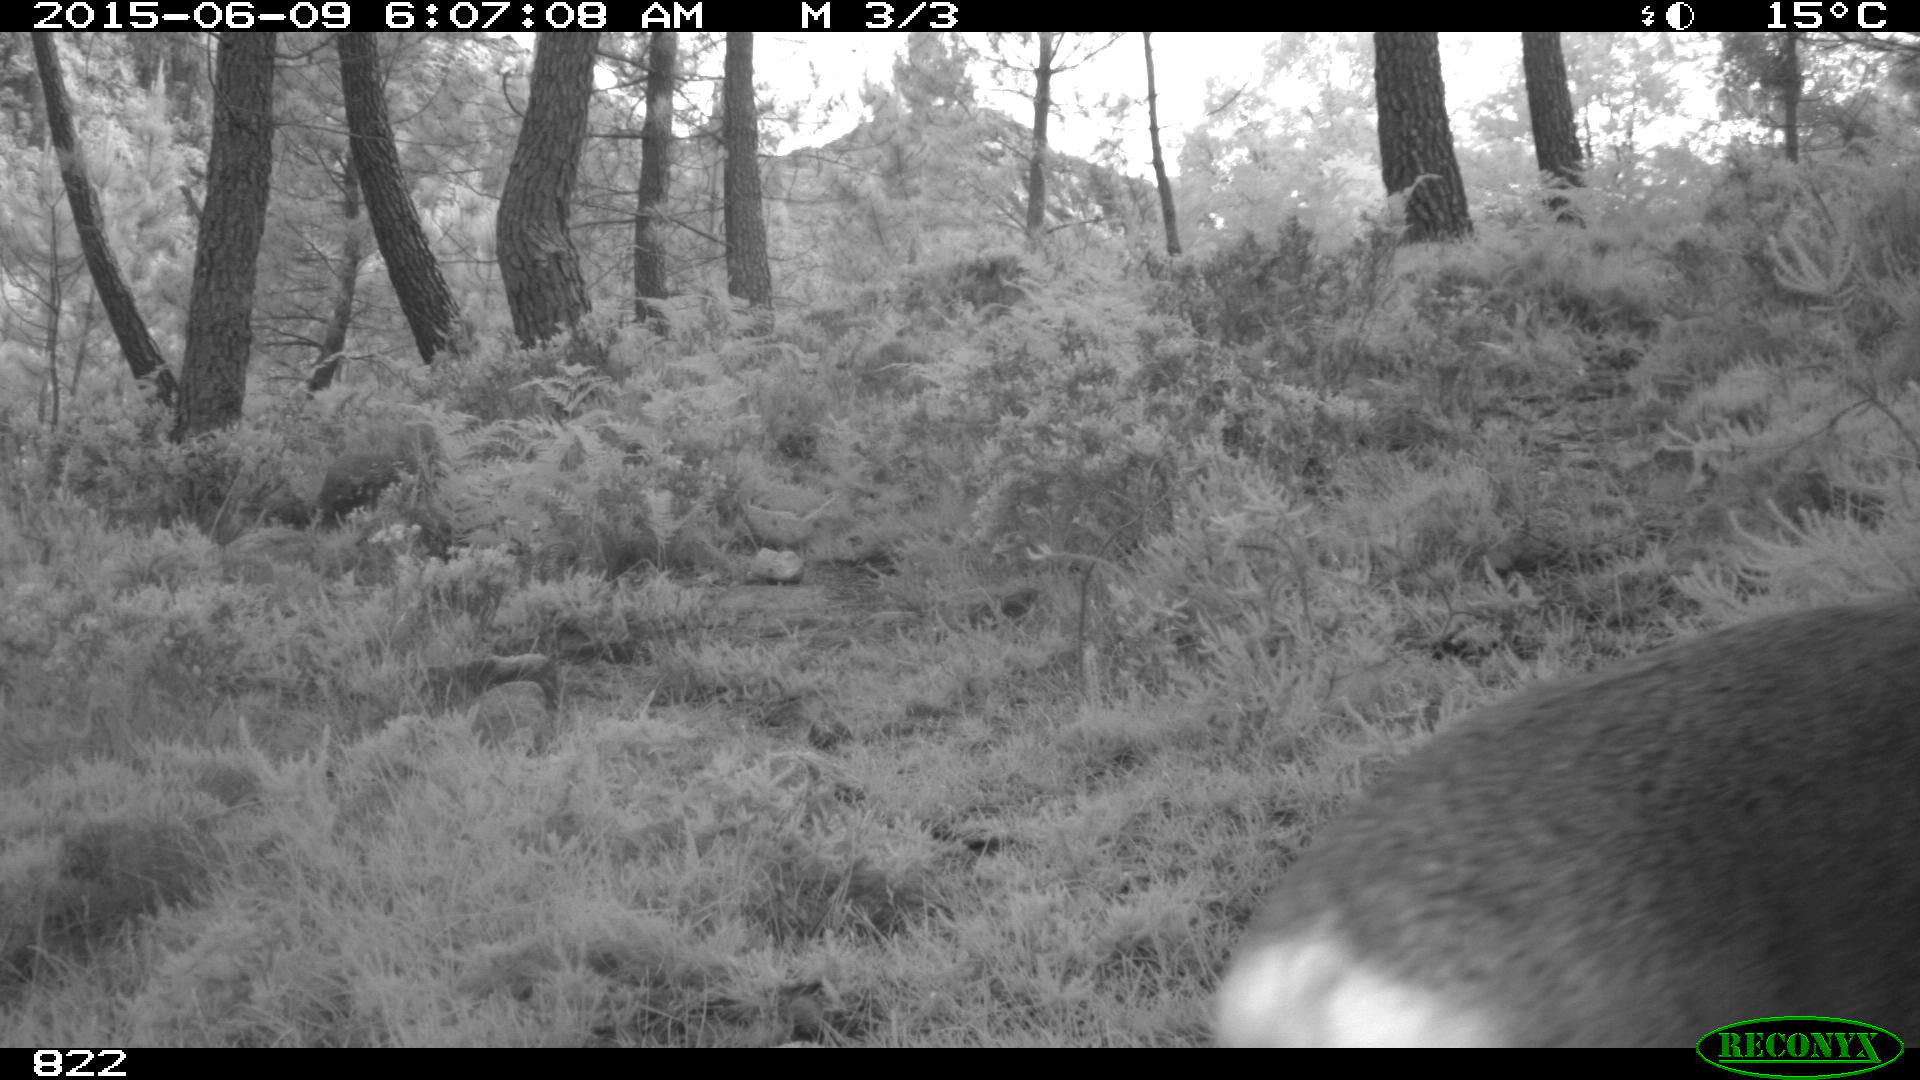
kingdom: Animalia
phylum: Chordata
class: Mammalia
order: Artiodactyla
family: Cervidae
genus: Capreolus
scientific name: Capreolus capreolus
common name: Western roe deer
